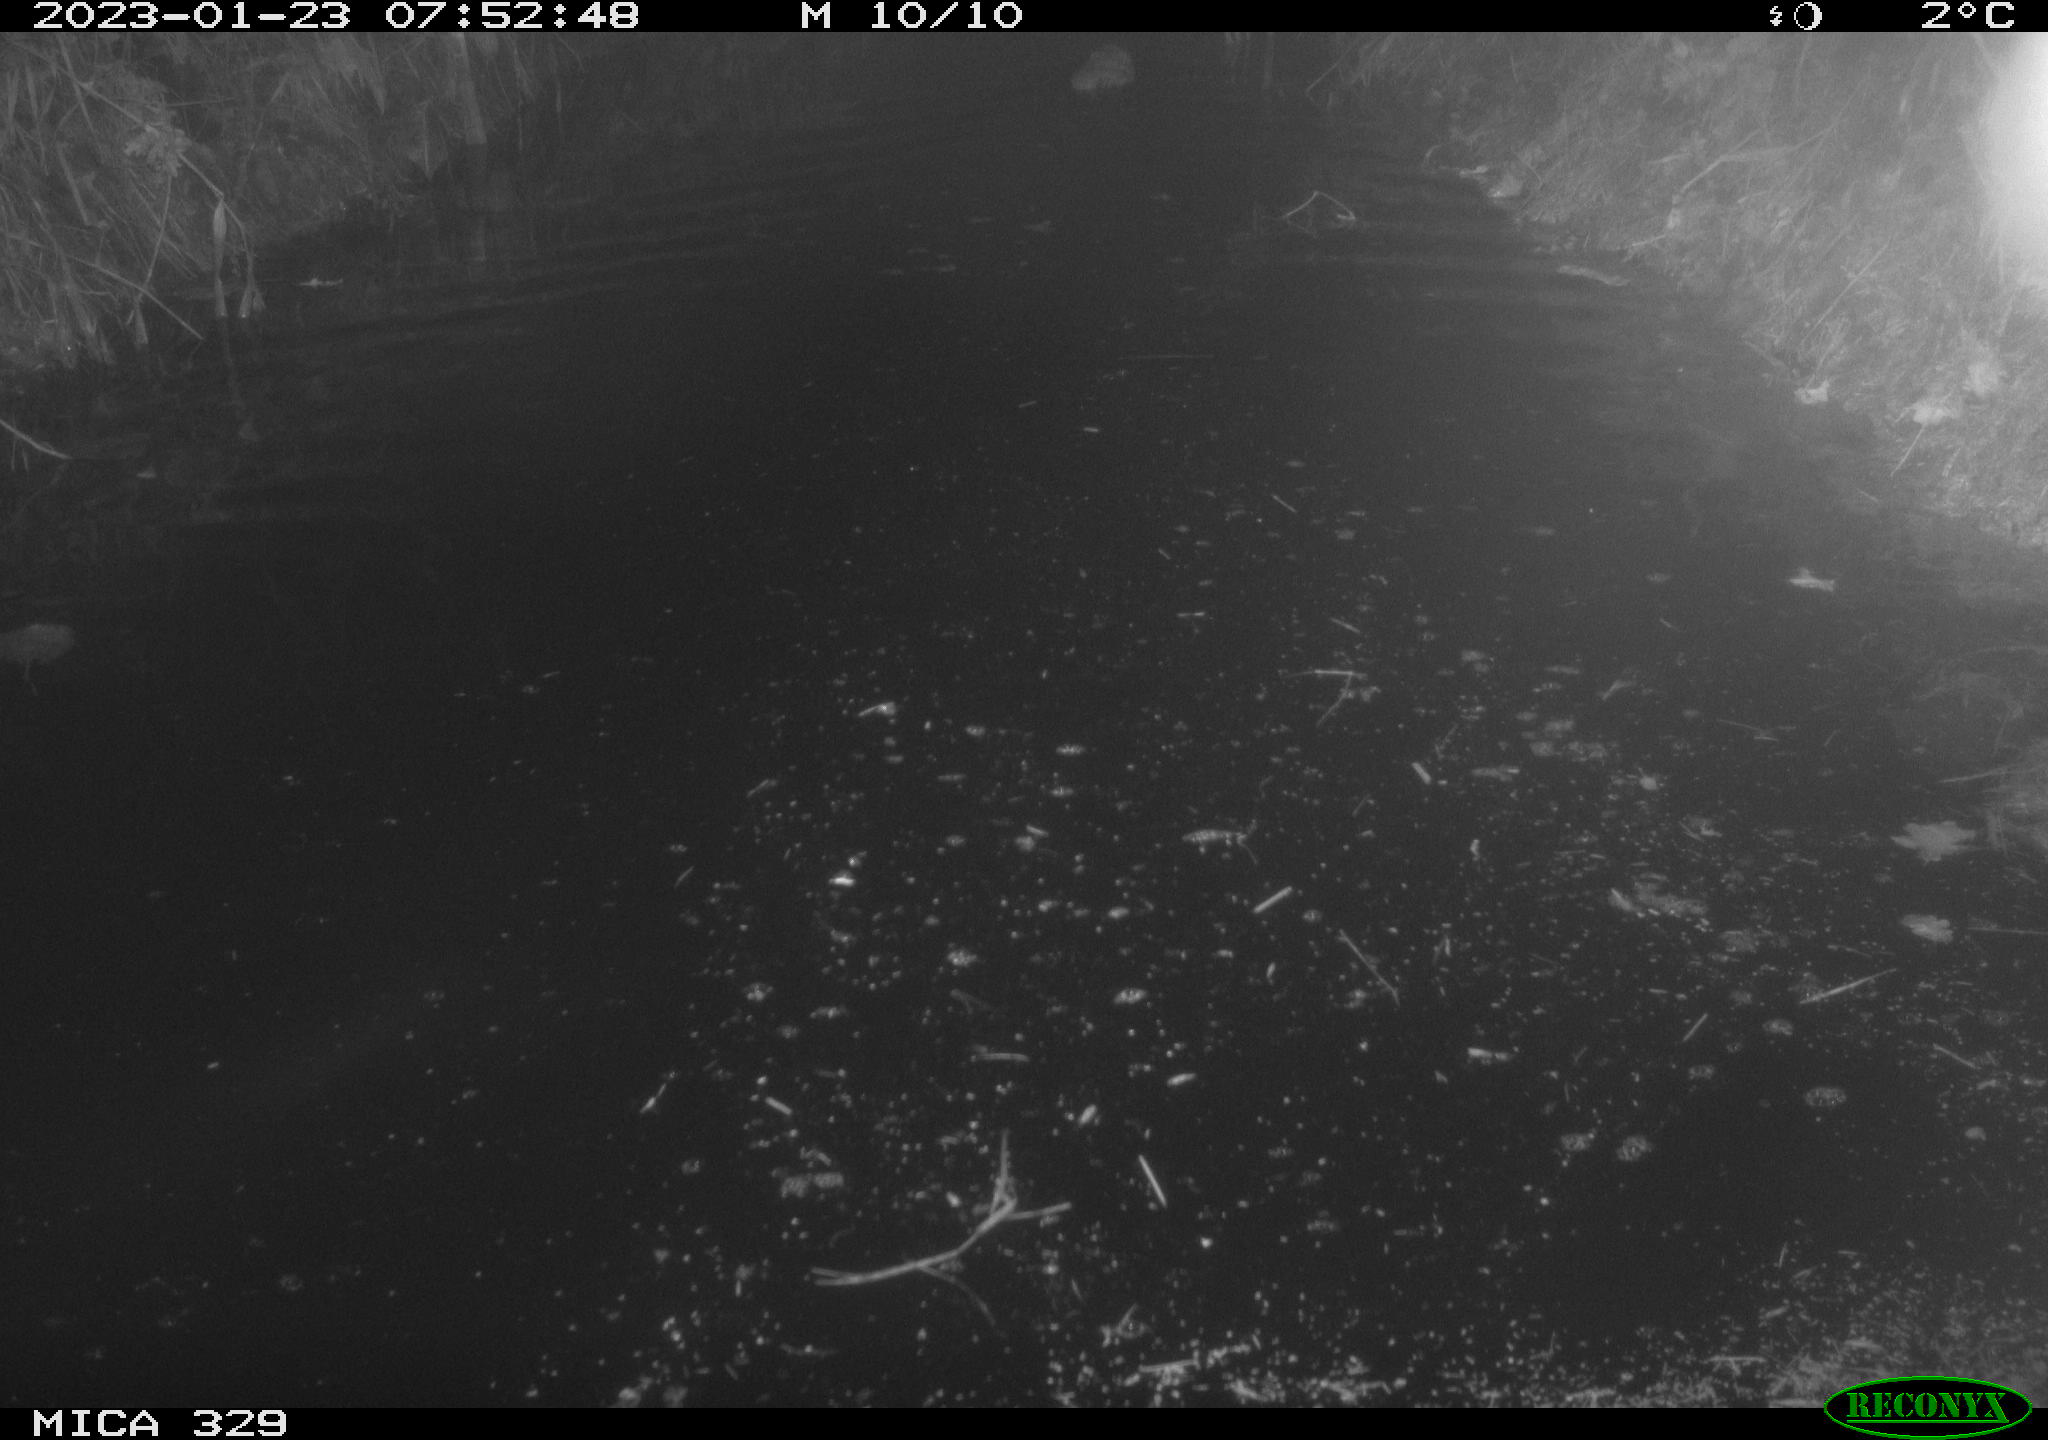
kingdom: Animalia
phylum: Chordata
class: Mammalia
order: Rodentia
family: Cricetidae
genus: Ondatra
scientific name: Ondatra zibethicus
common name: Muskrat
